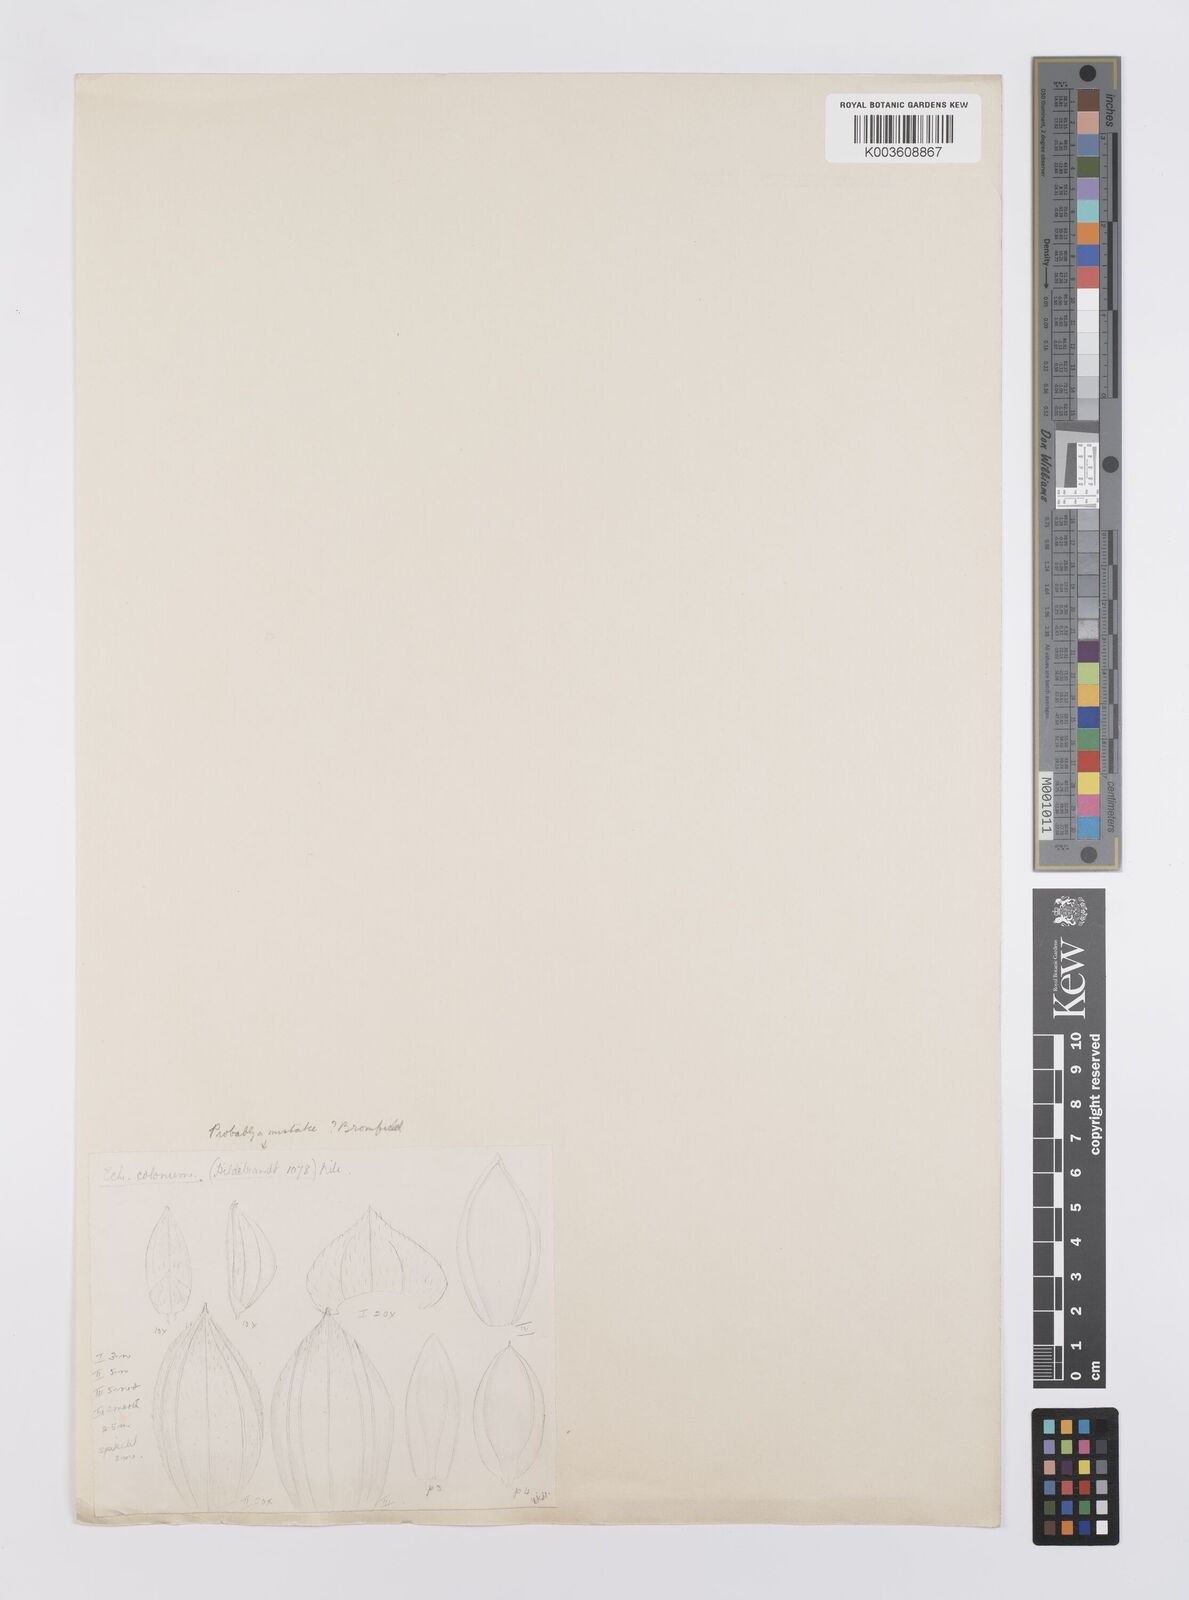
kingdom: Plantae
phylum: Tracheophyta
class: Liliopsida
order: Poales
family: Poaceae
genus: Echinochloa
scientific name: Echinochloa colonum
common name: Jungle rice
